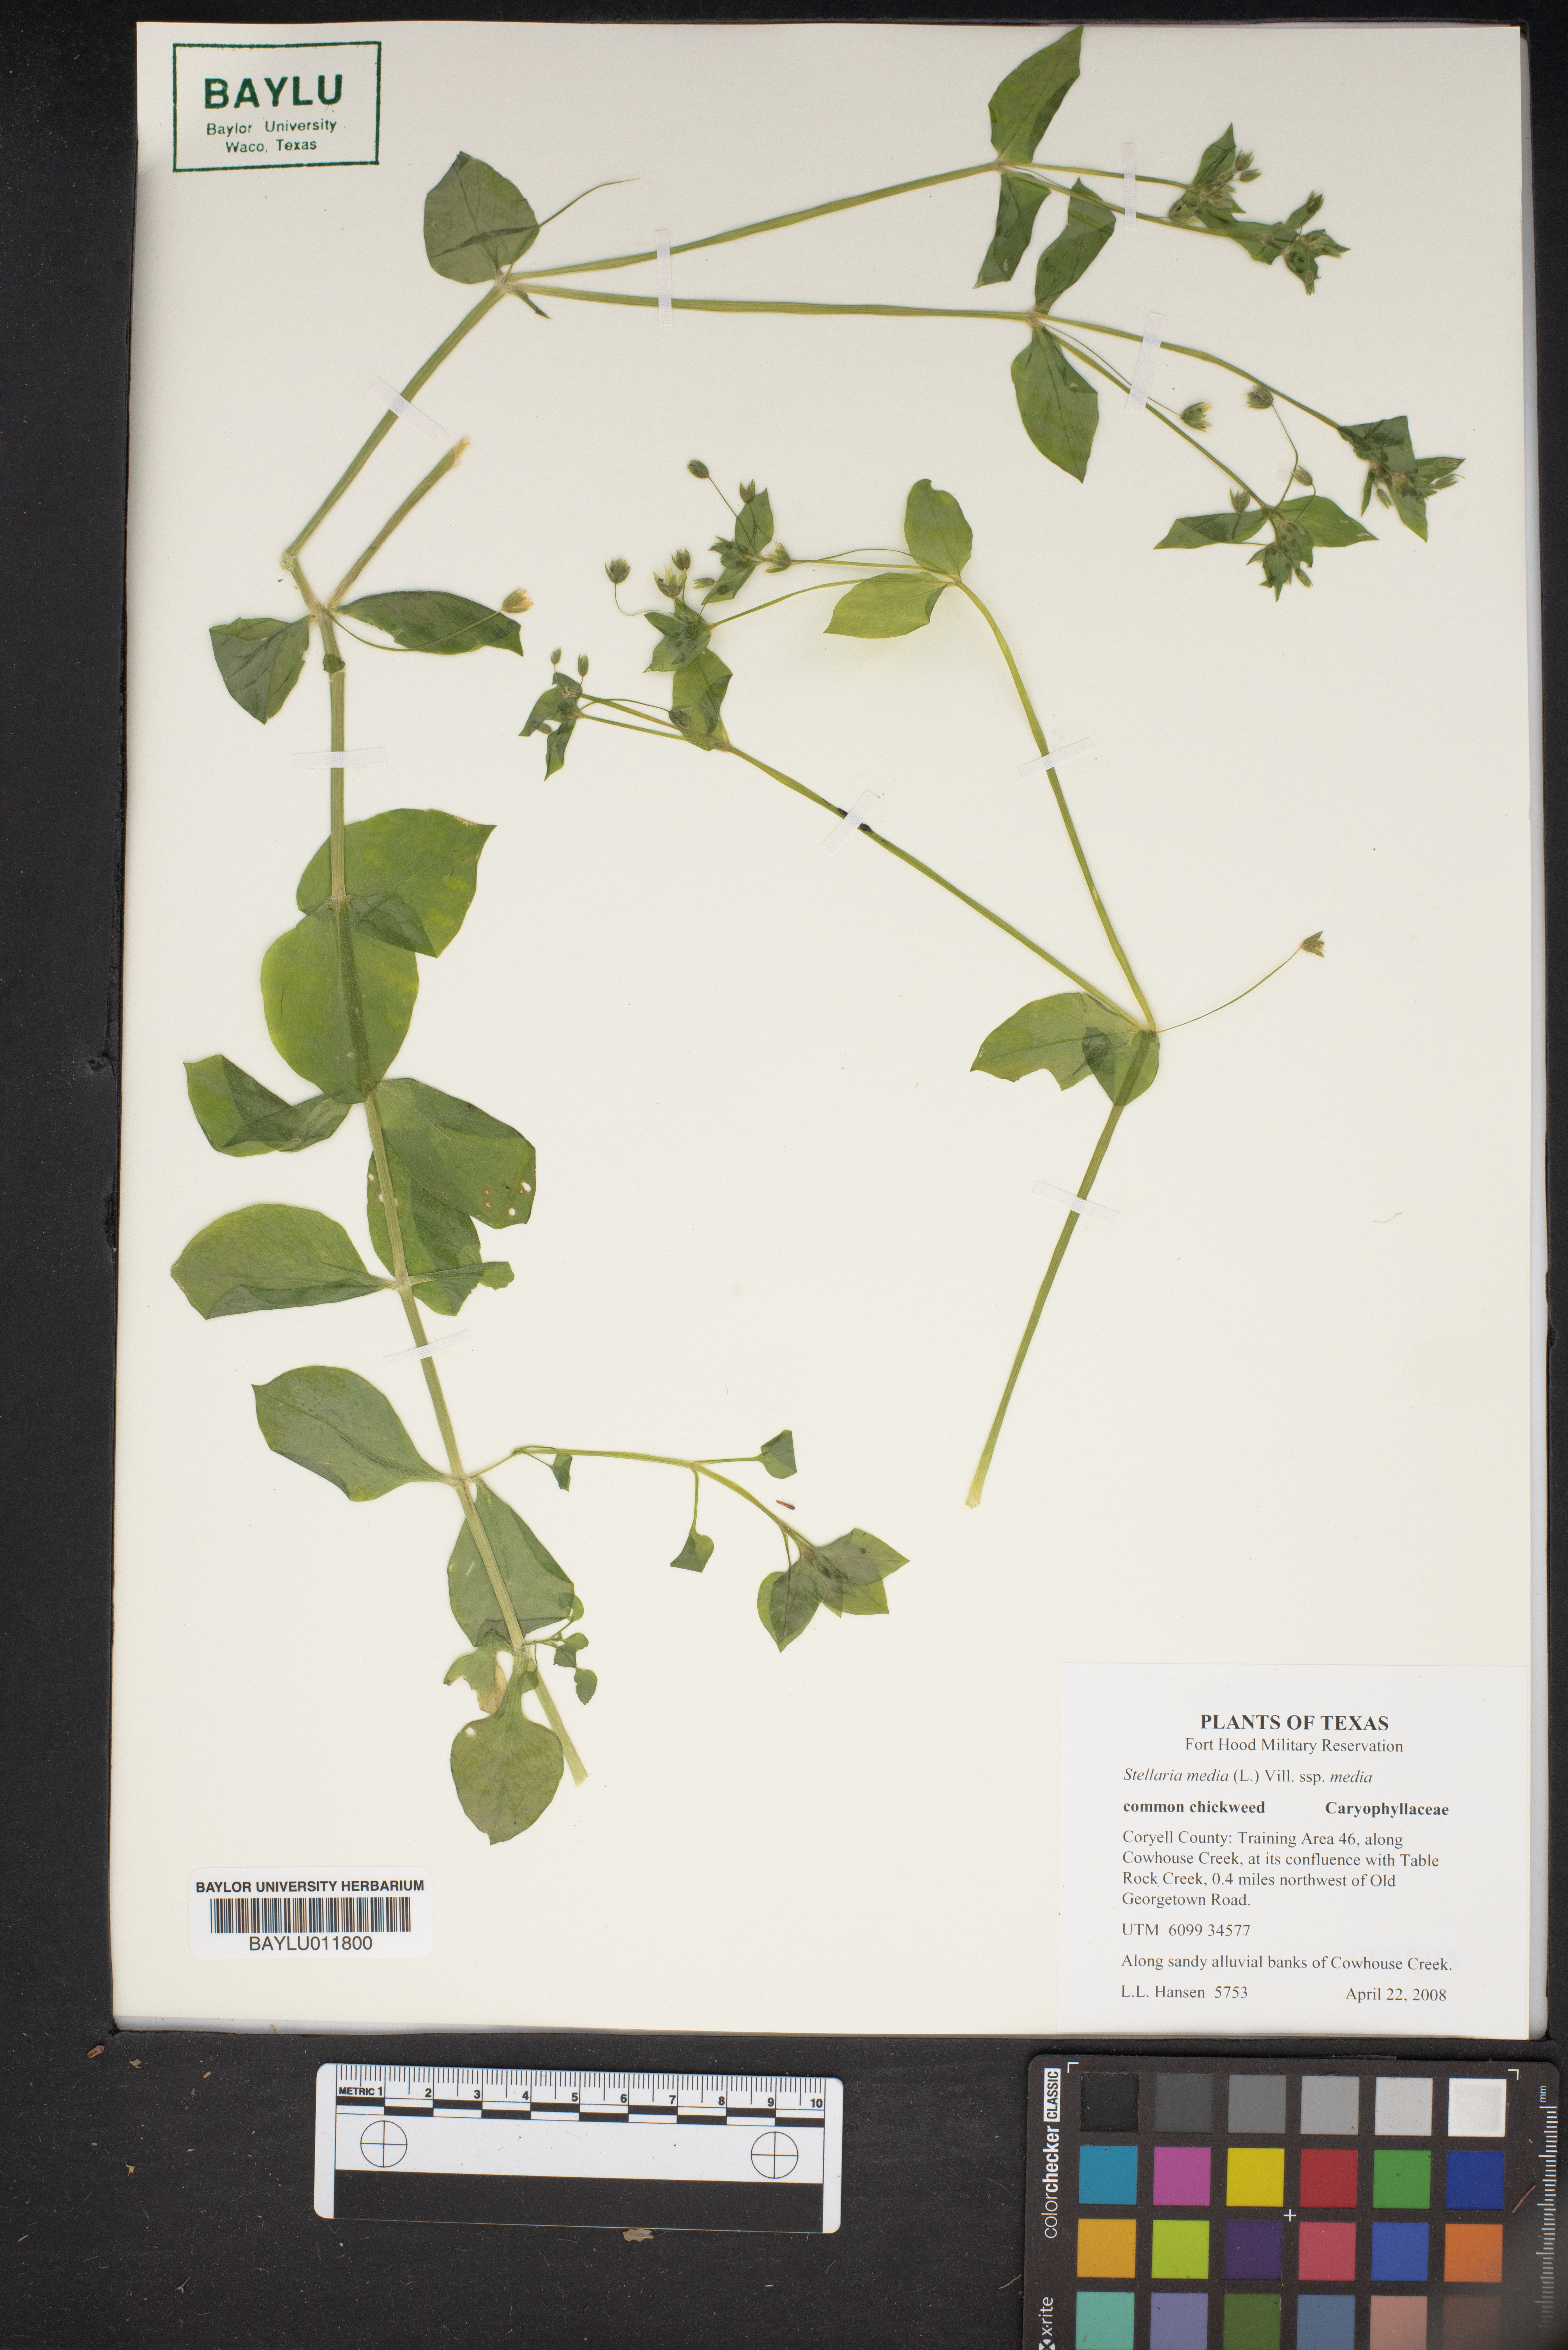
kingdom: Plantae
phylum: Tracheophyta
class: Magnoliopsida
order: Caryophyllales
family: Caryophyllaceae
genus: Stellaria
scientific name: Stellaria media
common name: Common chickweed
